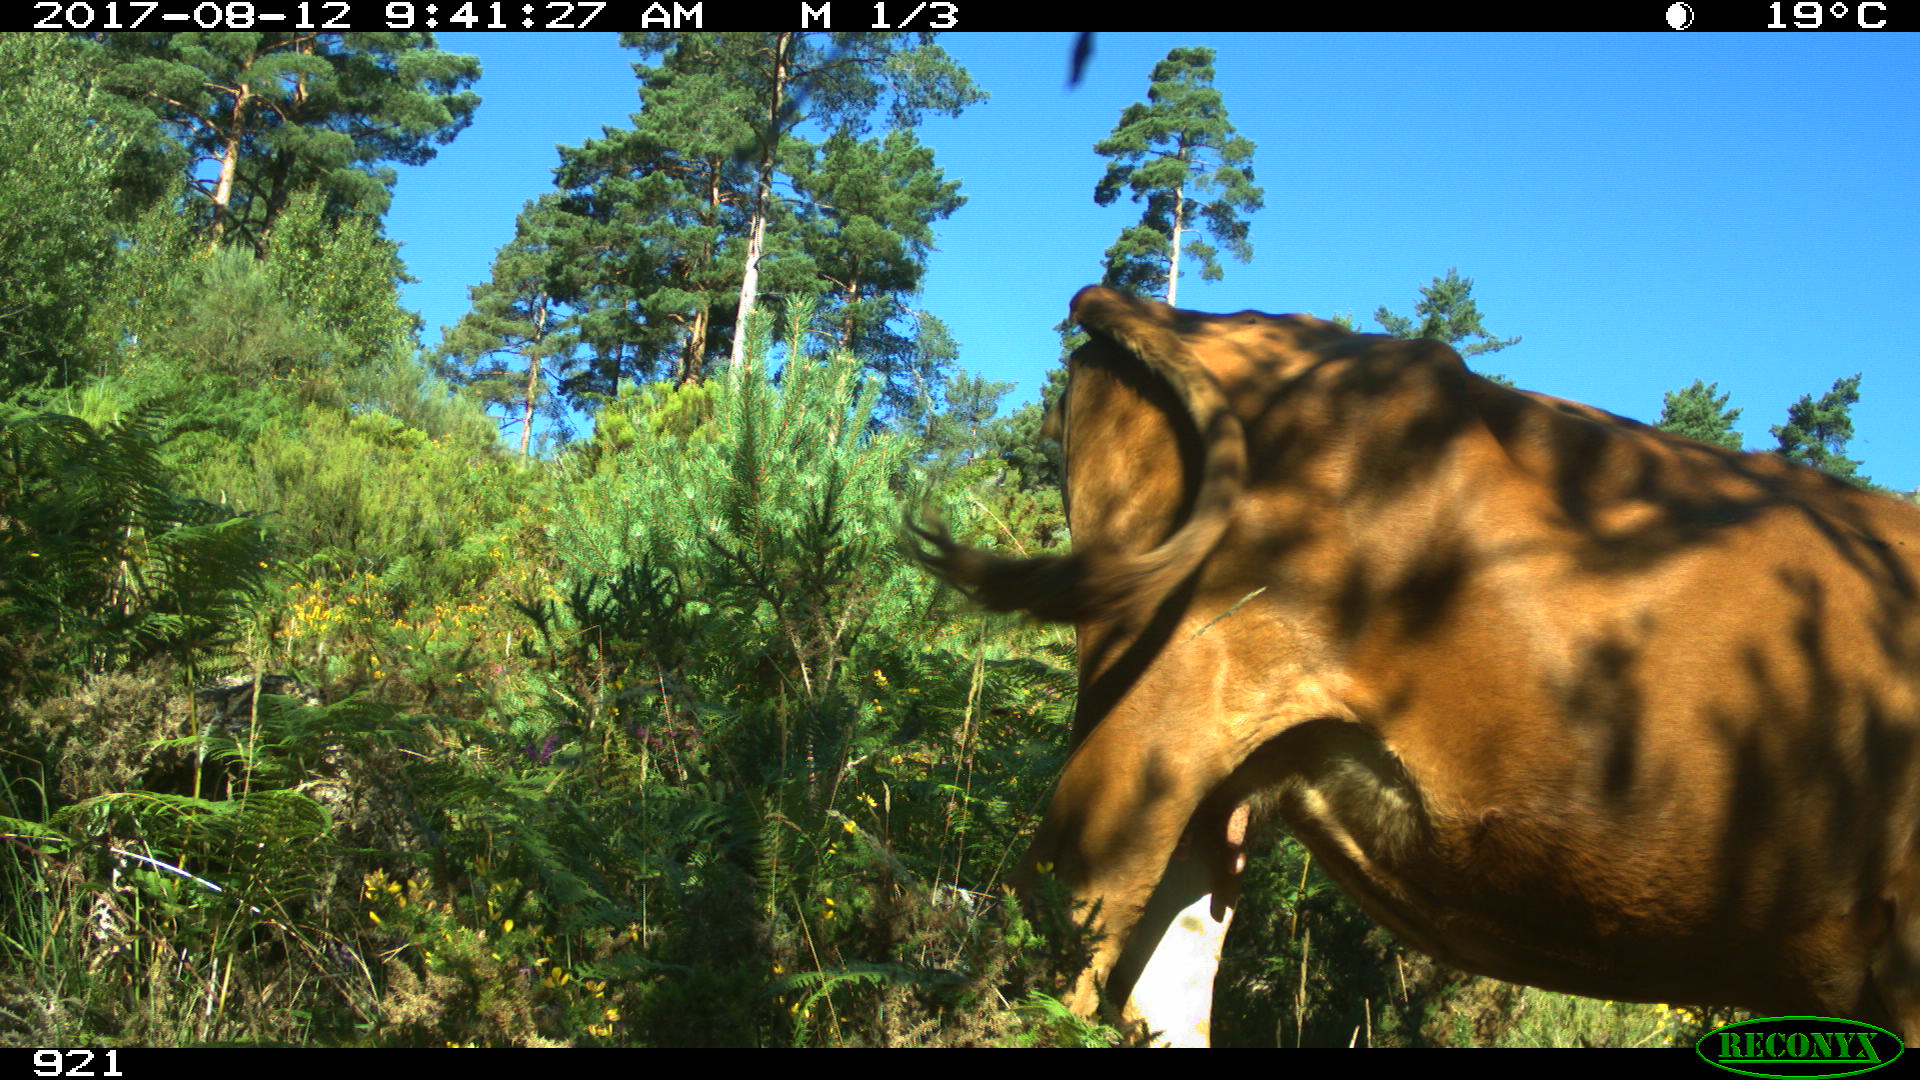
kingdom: Animalia
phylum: Chordata
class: Mammalia
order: Artiodactyla
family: Bovidae
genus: Bos
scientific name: Bos taurus
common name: Domesticated cattle
